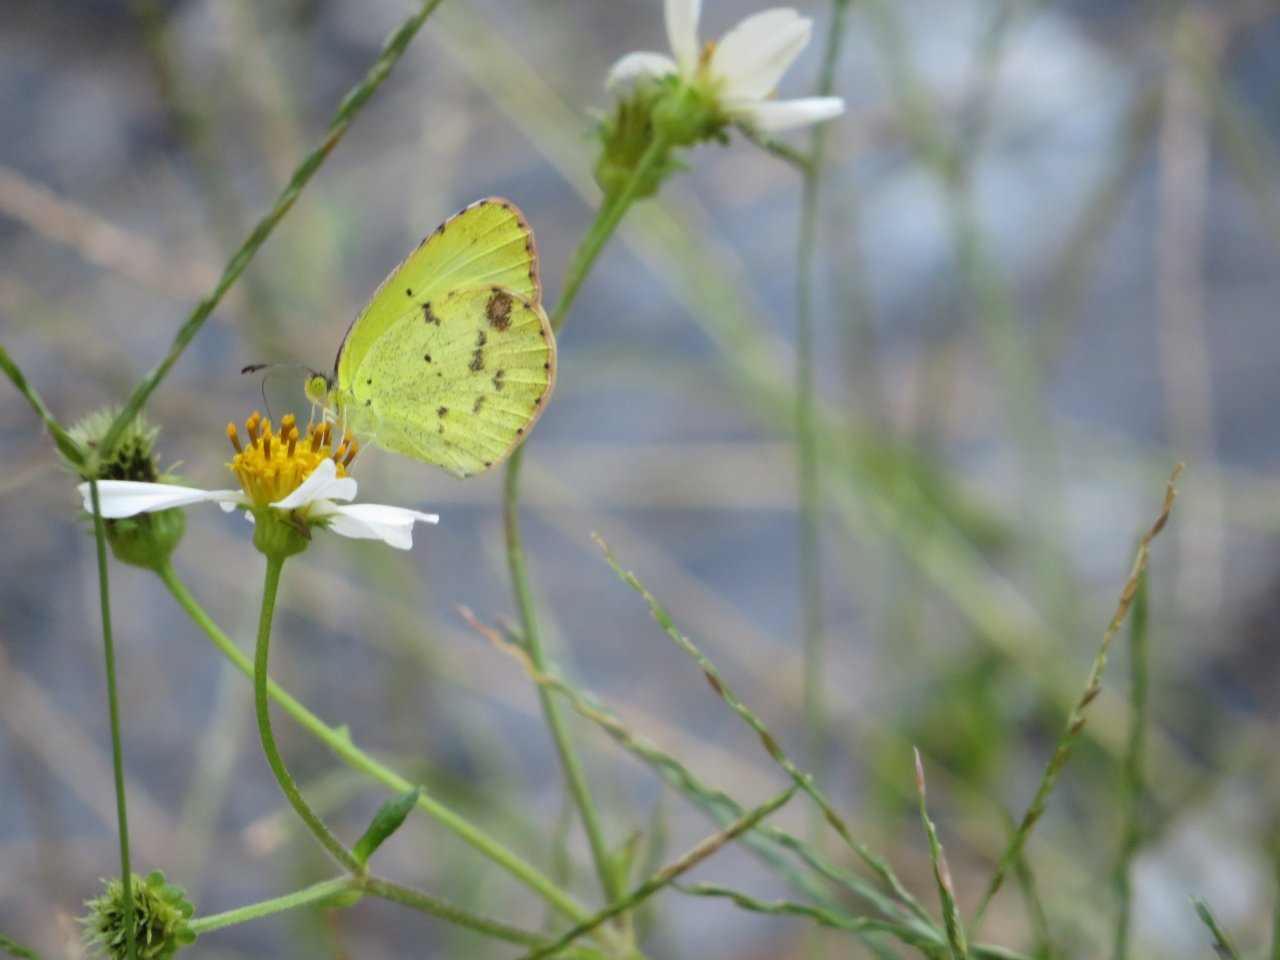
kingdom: Animalia
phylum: Arthropoda
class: Insecta
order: Lepidoptera
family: Pieridae
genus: Pyrisitia
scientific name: Pyrisitia lisa
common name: Little Yellow
